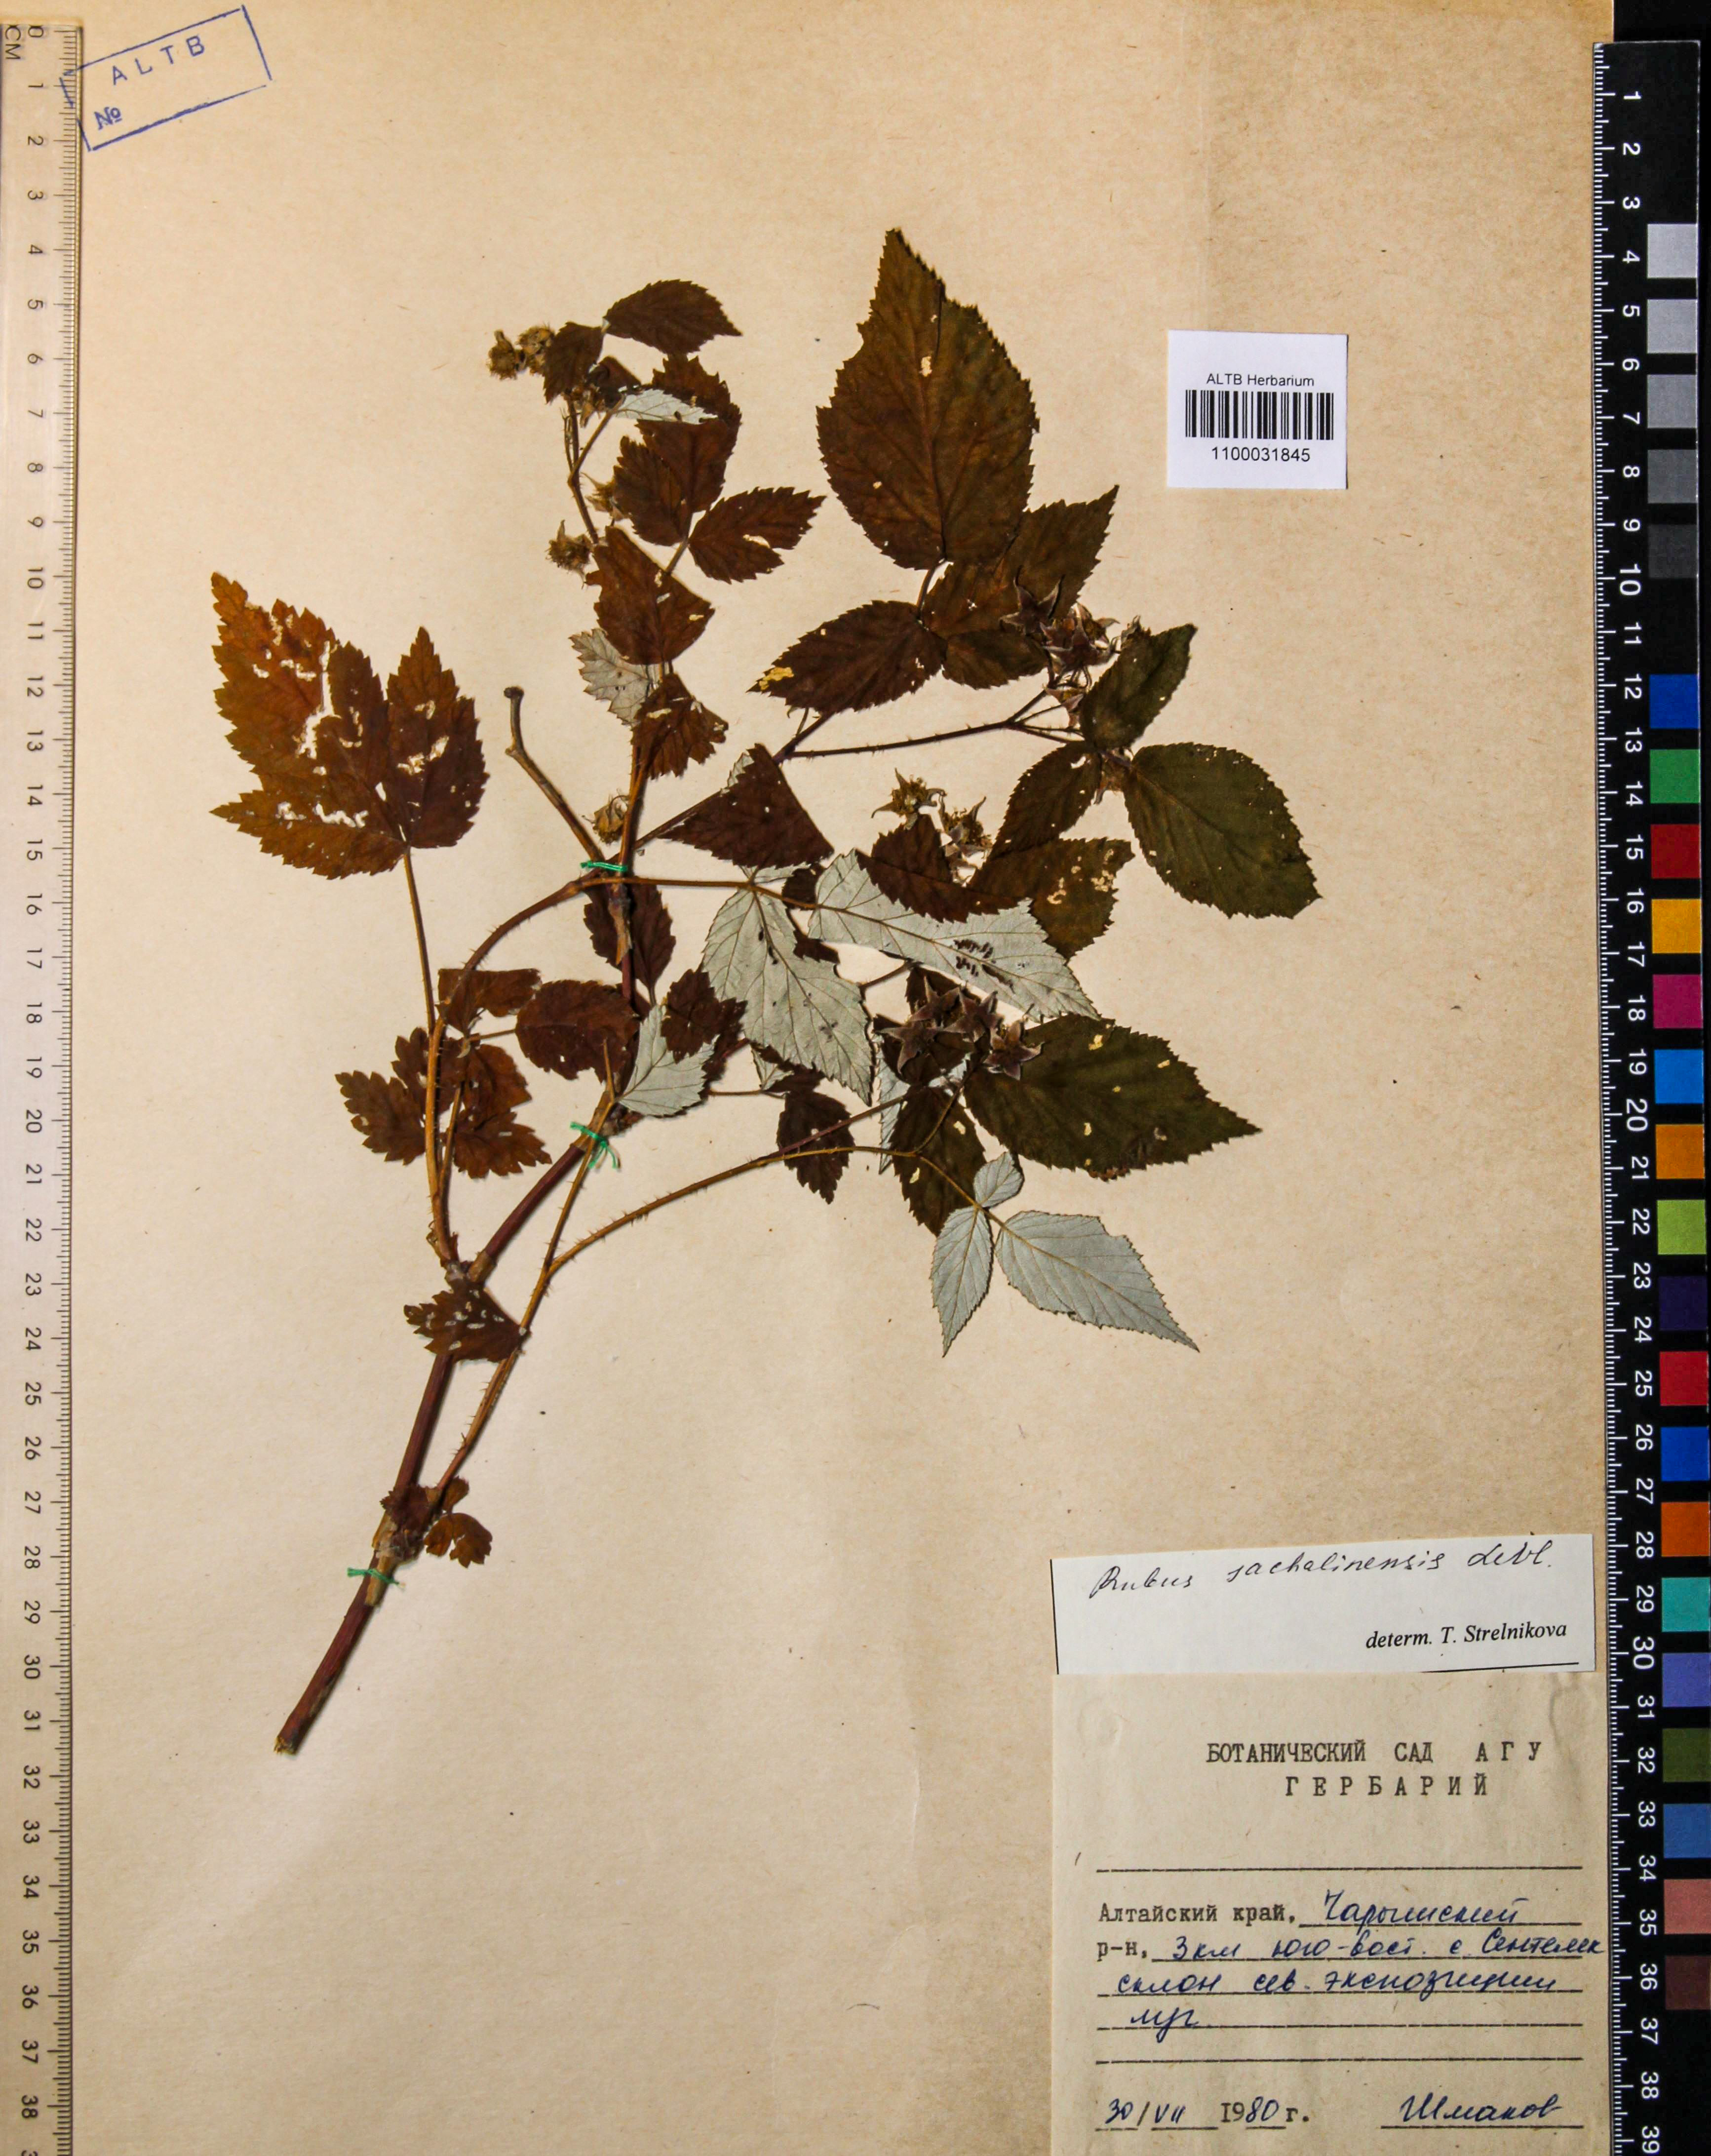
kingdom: Plantae
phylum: Tracheophyta
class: Magnoliopsida
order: Rosales
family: Rosaceae
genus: Rubus
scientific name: Rubus sachalinensis
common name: Red raspberry
